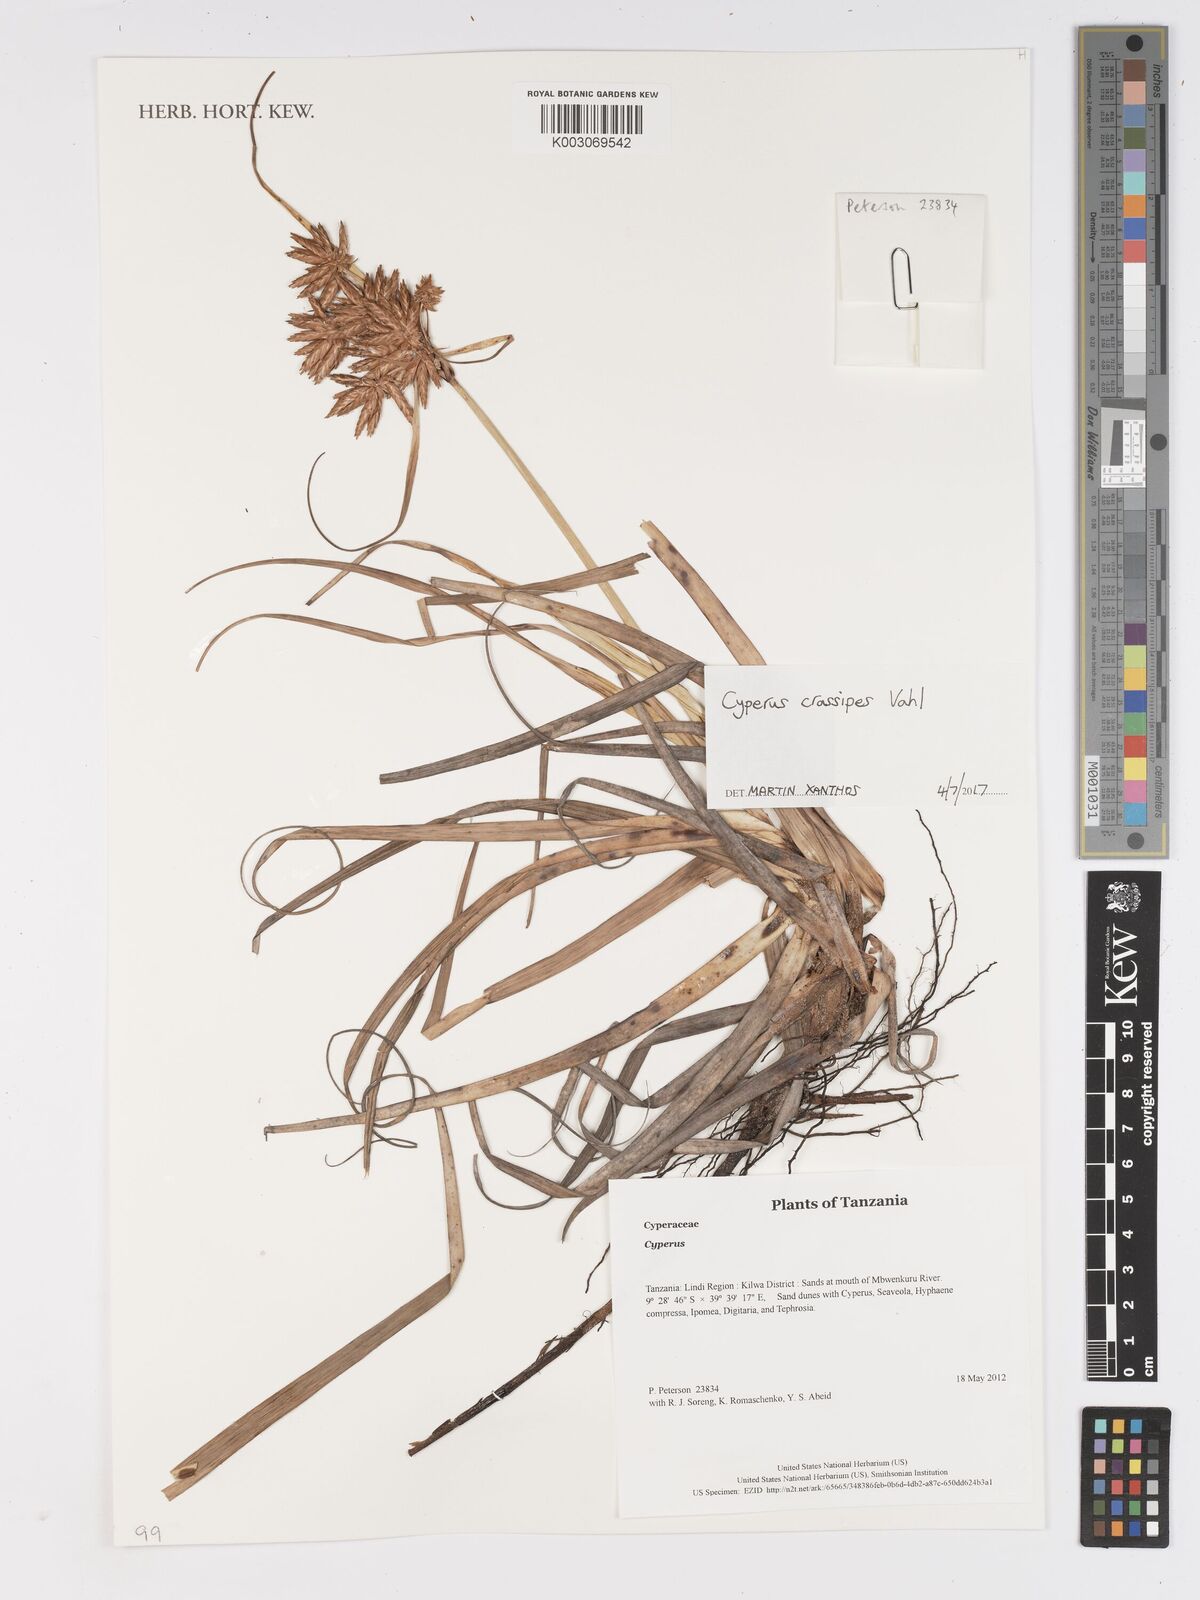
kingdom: Plantae
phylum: Tracheophyta
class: Liliopsida
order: Poales
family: Cyperaceae
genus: Cyperus
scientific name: Cyperus crassipes
